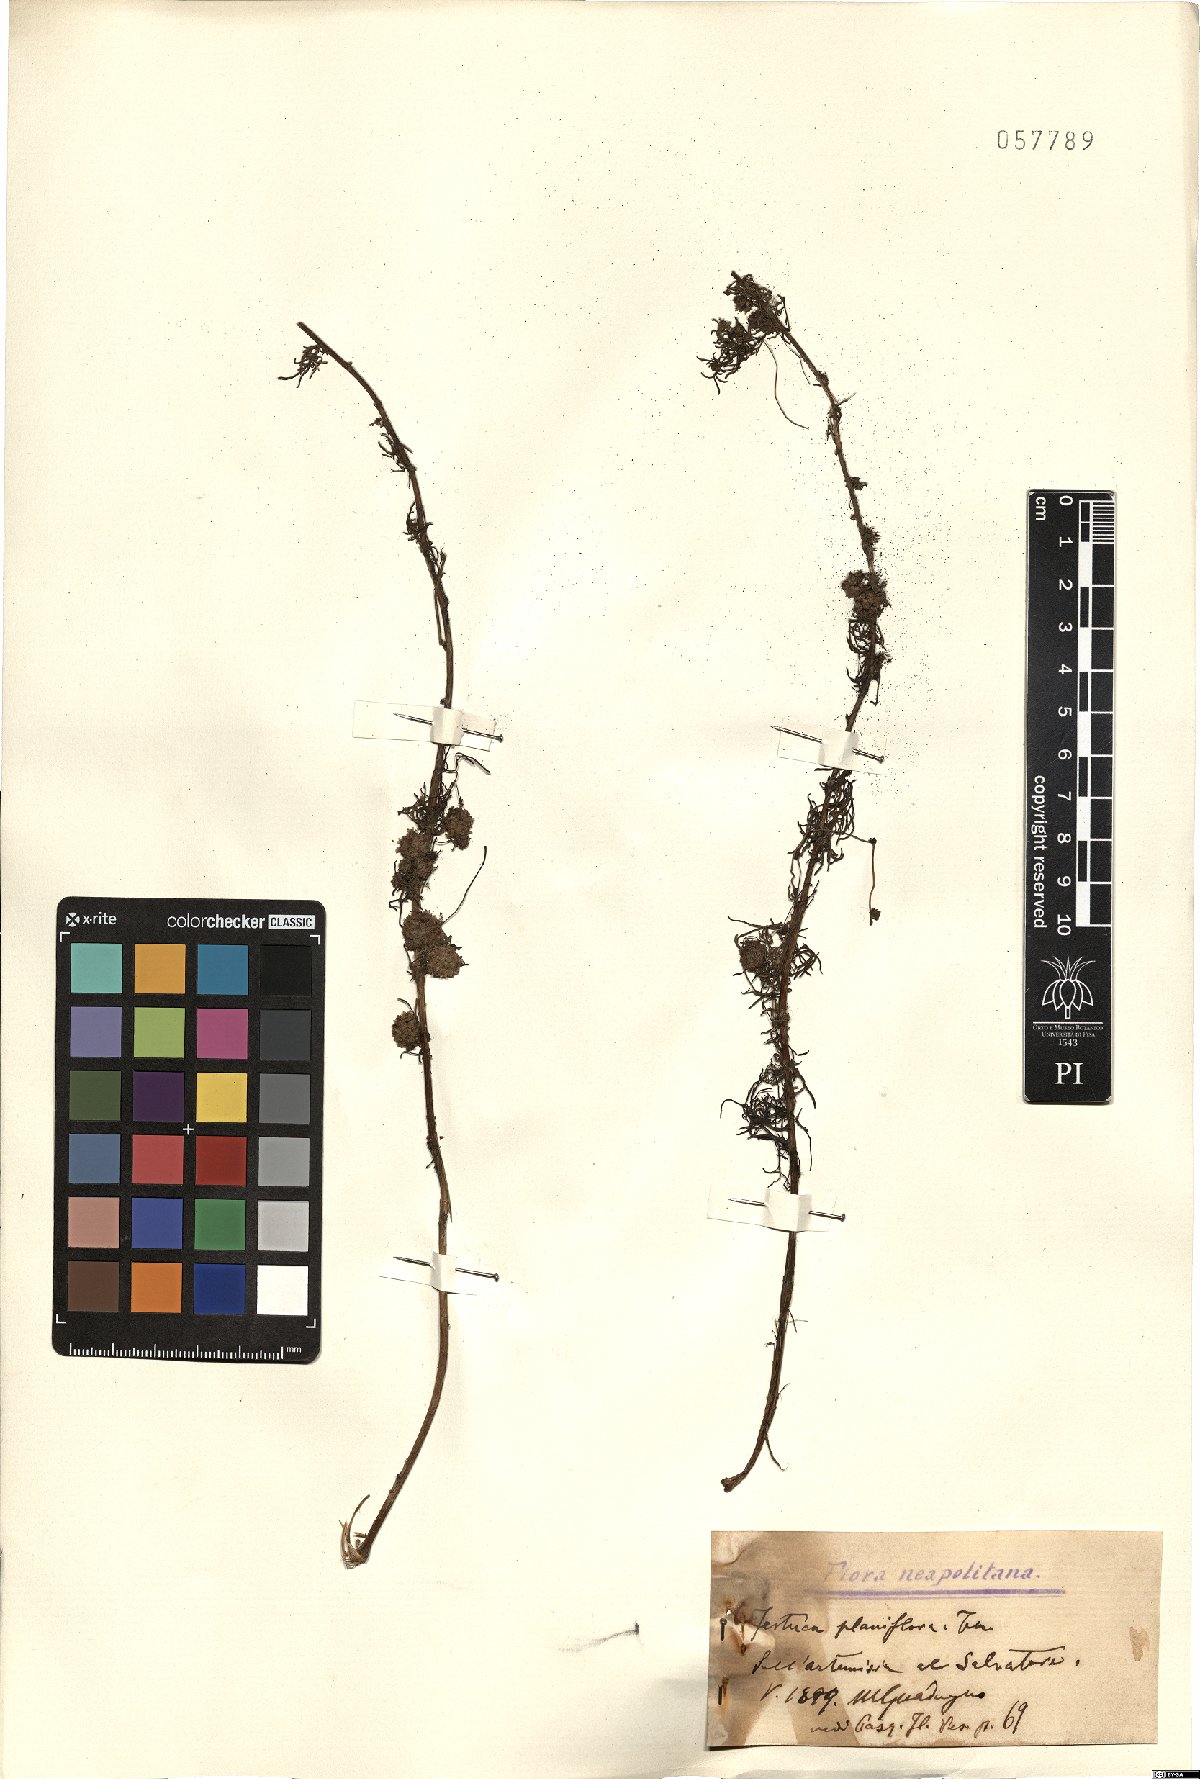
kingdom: Plantae
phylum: Tracheophyta
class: Magnoliopsida
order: Solanales
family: Convolvulaceae
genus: Cuscuta
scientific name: Cuscuta planiflora
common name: Small-seed alfalfa dodder
